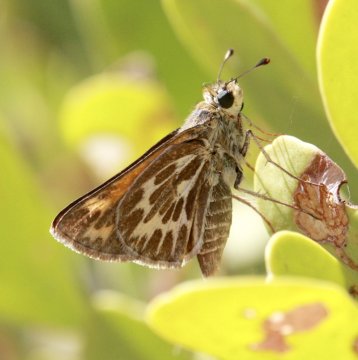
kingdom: Animalia
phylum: Arthropoda
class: Insecta
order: Lepidoptera
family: Hesperiidae
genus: Polites
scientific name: Polites
